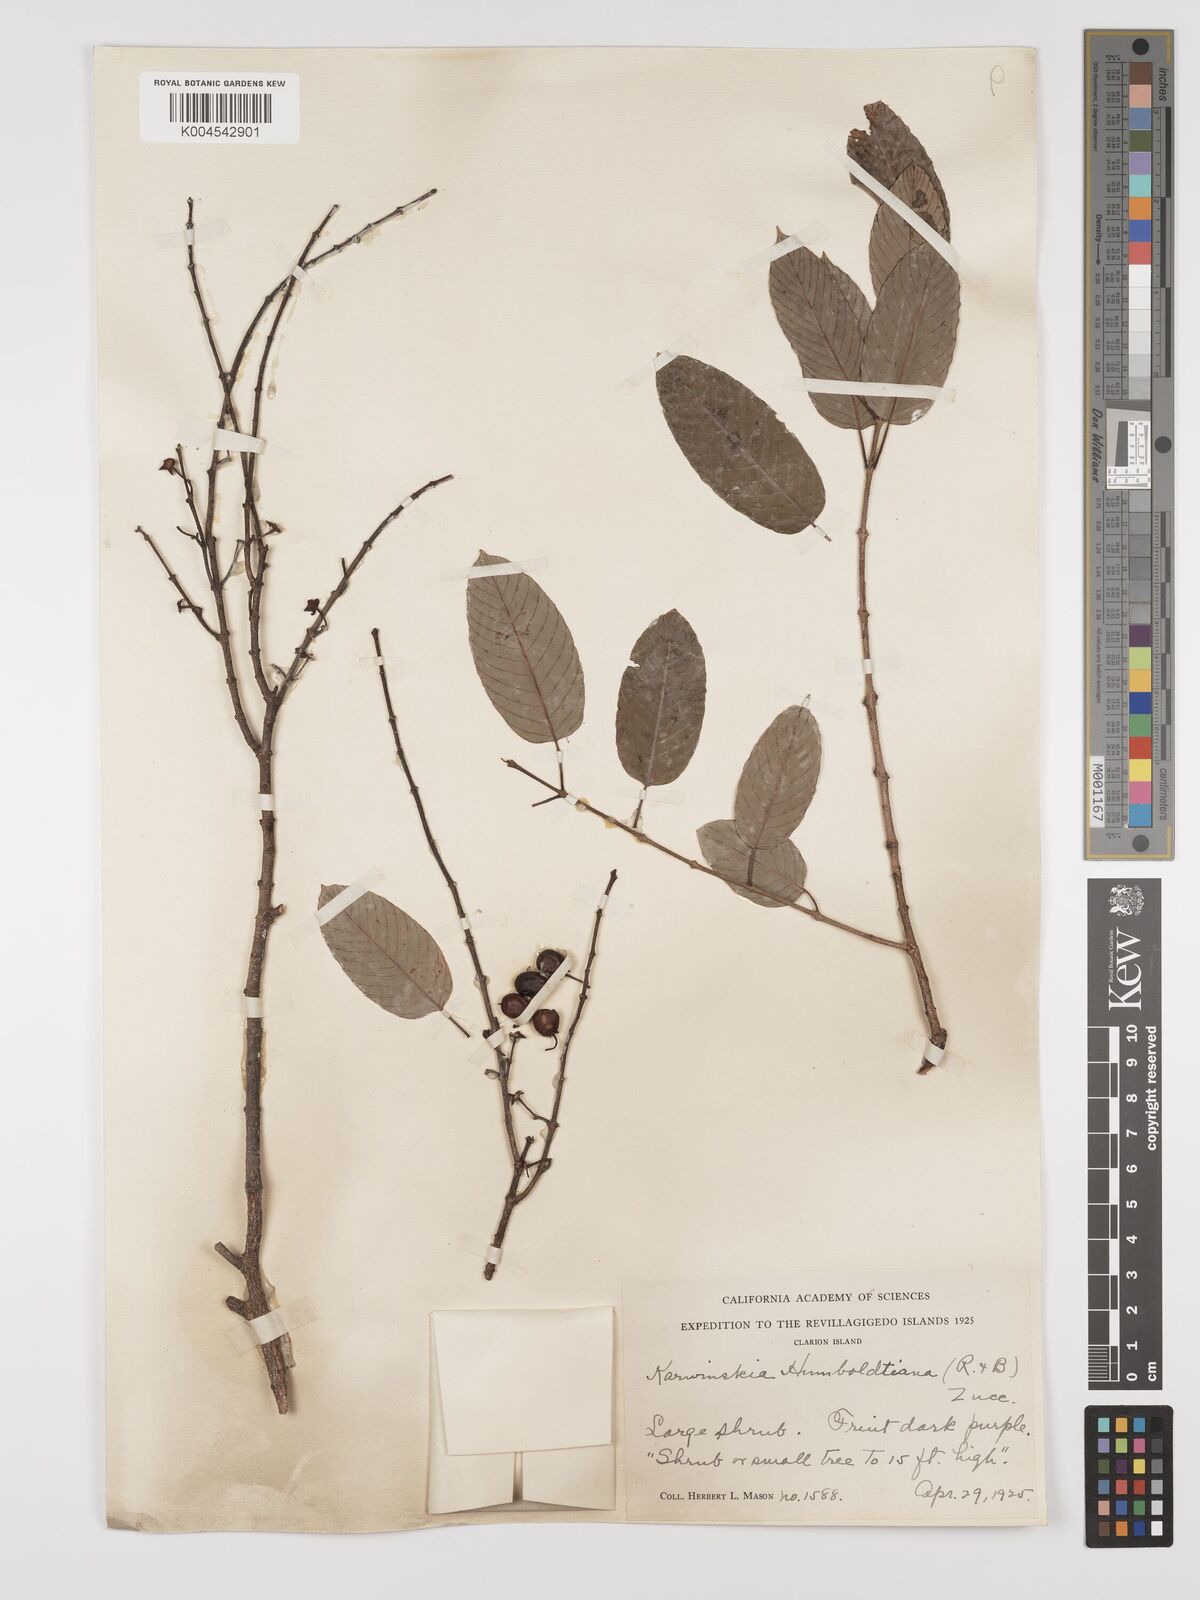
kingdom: Plantae
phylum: Tracheophyta
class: Magnoliopsida
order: Rosales
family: Rhamnaceae
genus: Karwinskia
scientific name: Karwinskia humboldtiana
